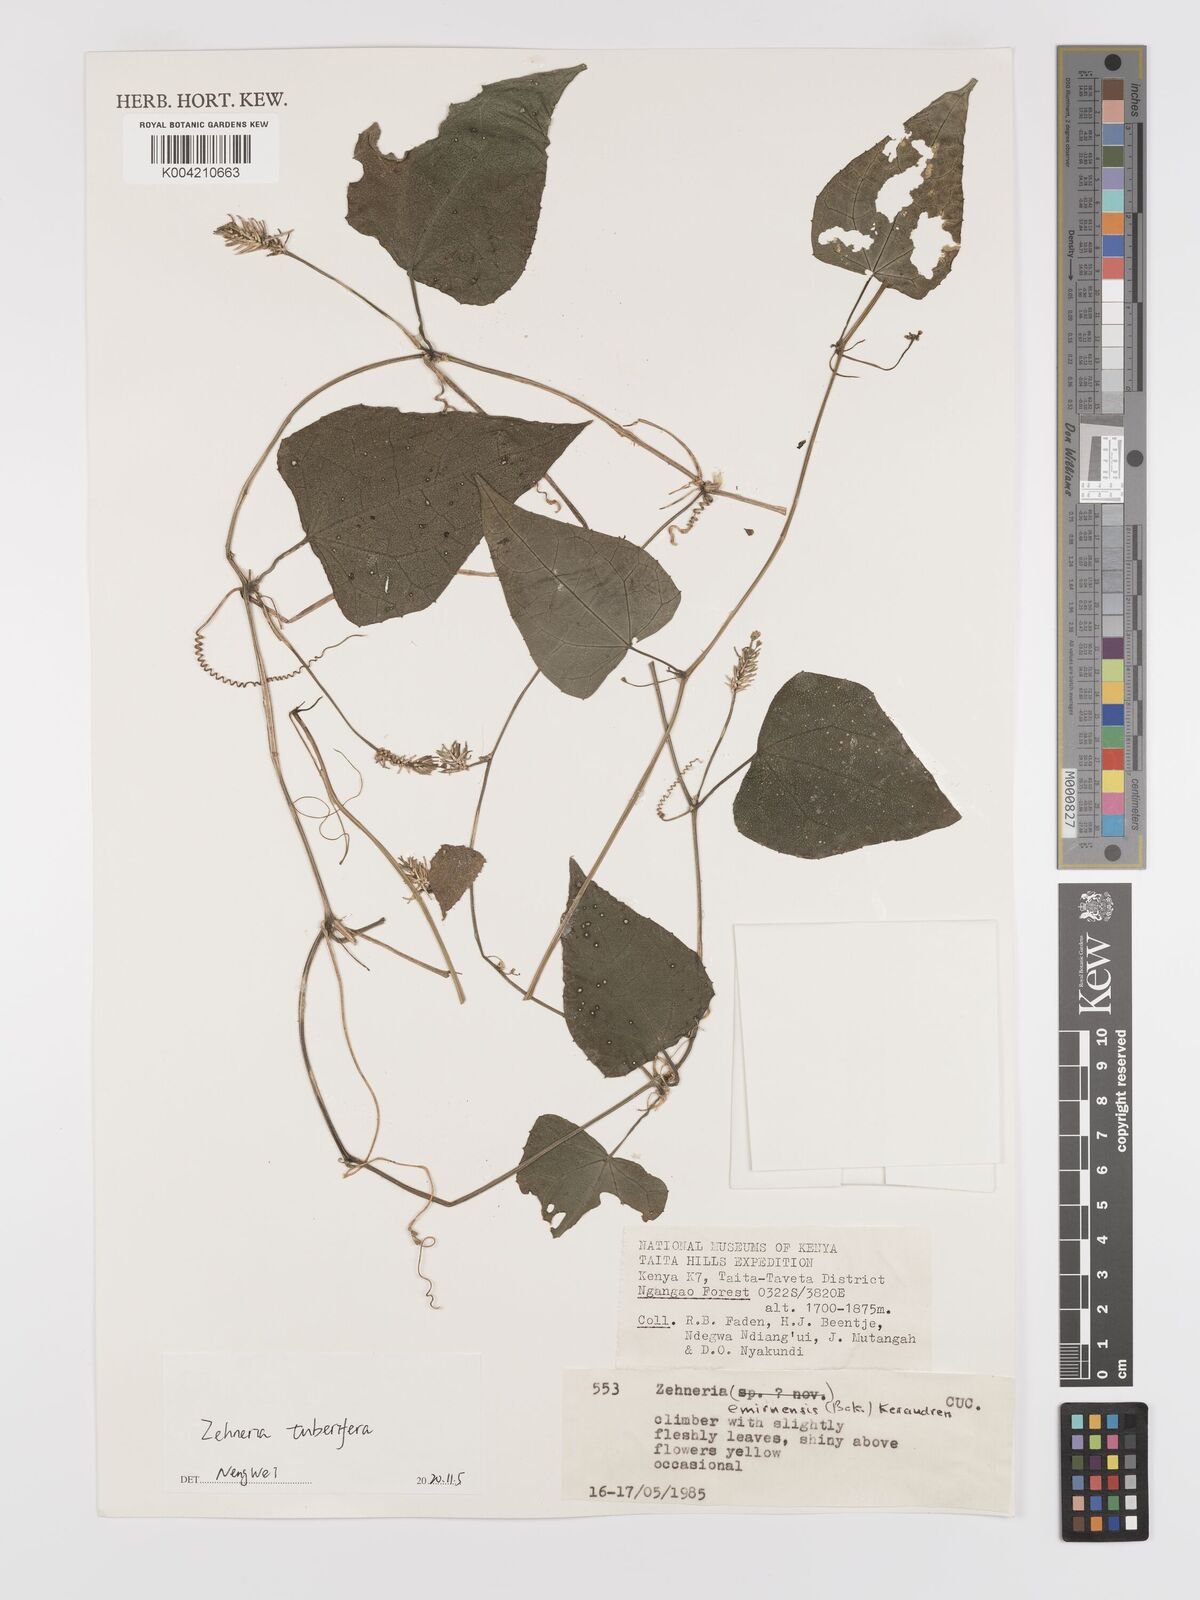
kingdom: Plantae
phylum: Tracheophyta
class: Magnoliopsida
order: Cucurbitales
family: Cucurbitaceae
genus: Zehneria
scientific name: Zehneria tuberifera
